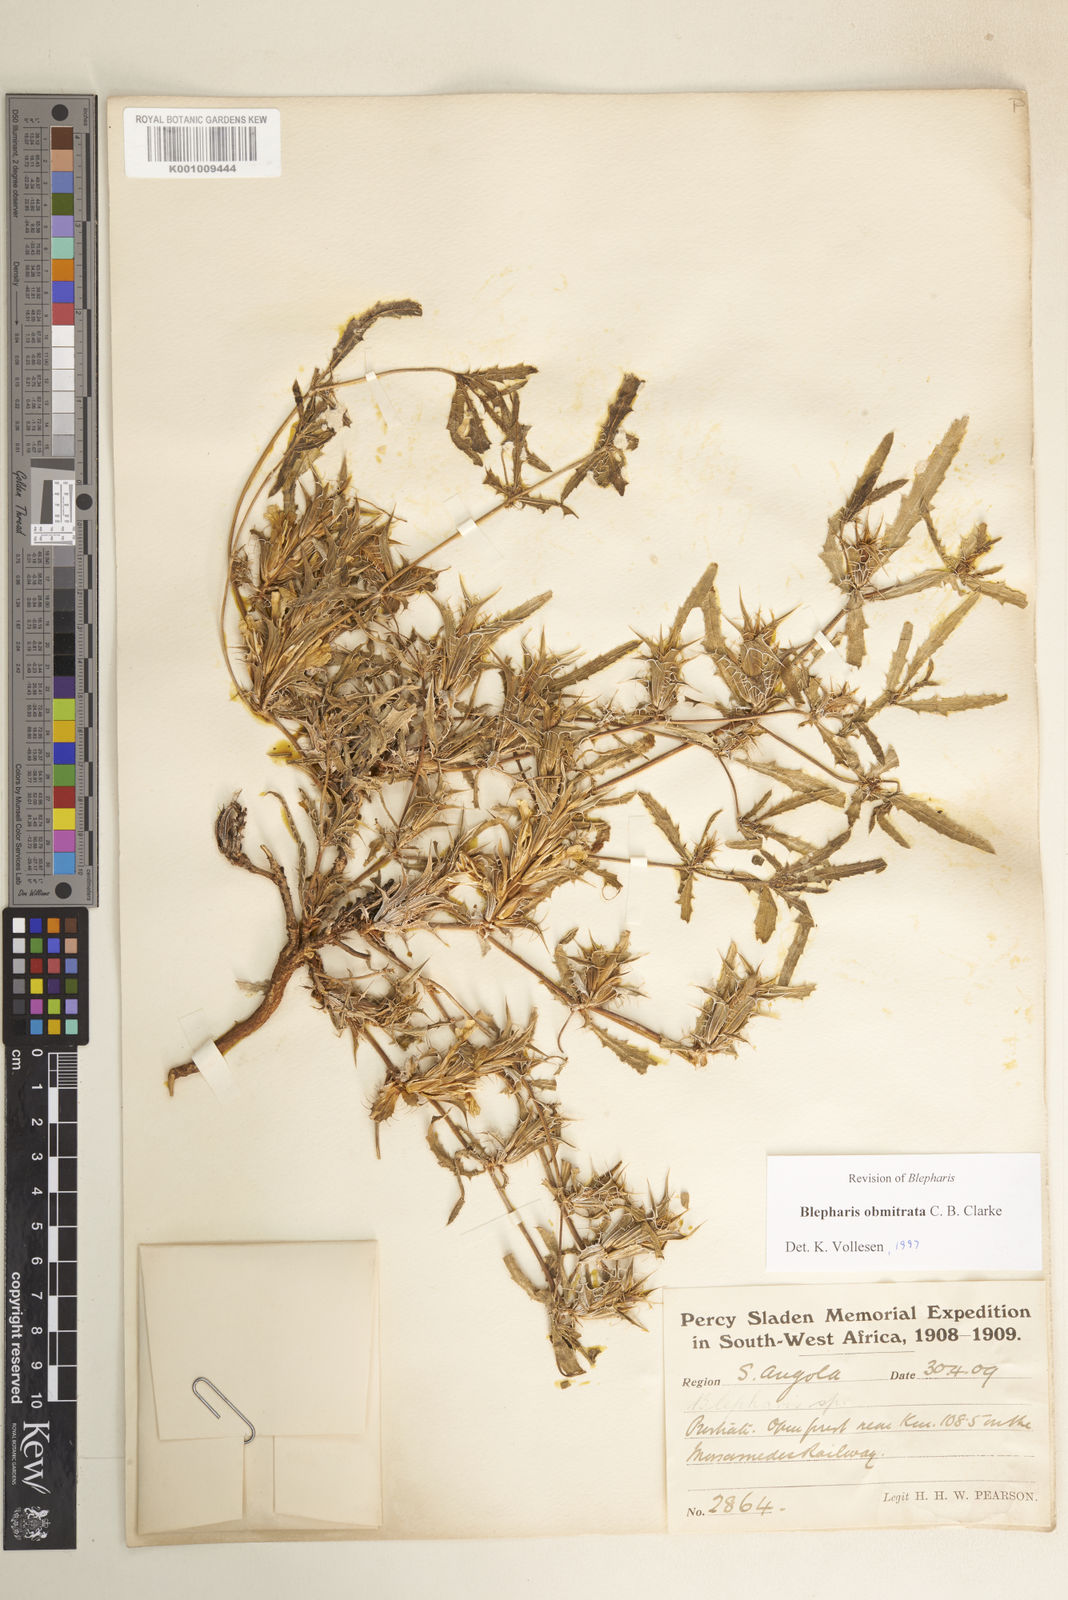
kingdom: Plantae
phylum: Tracheophyta
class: Magnoliopsida
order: Lamiales
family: Acanthaceae
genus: Blepharis
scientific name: Blepharis obmitrata
